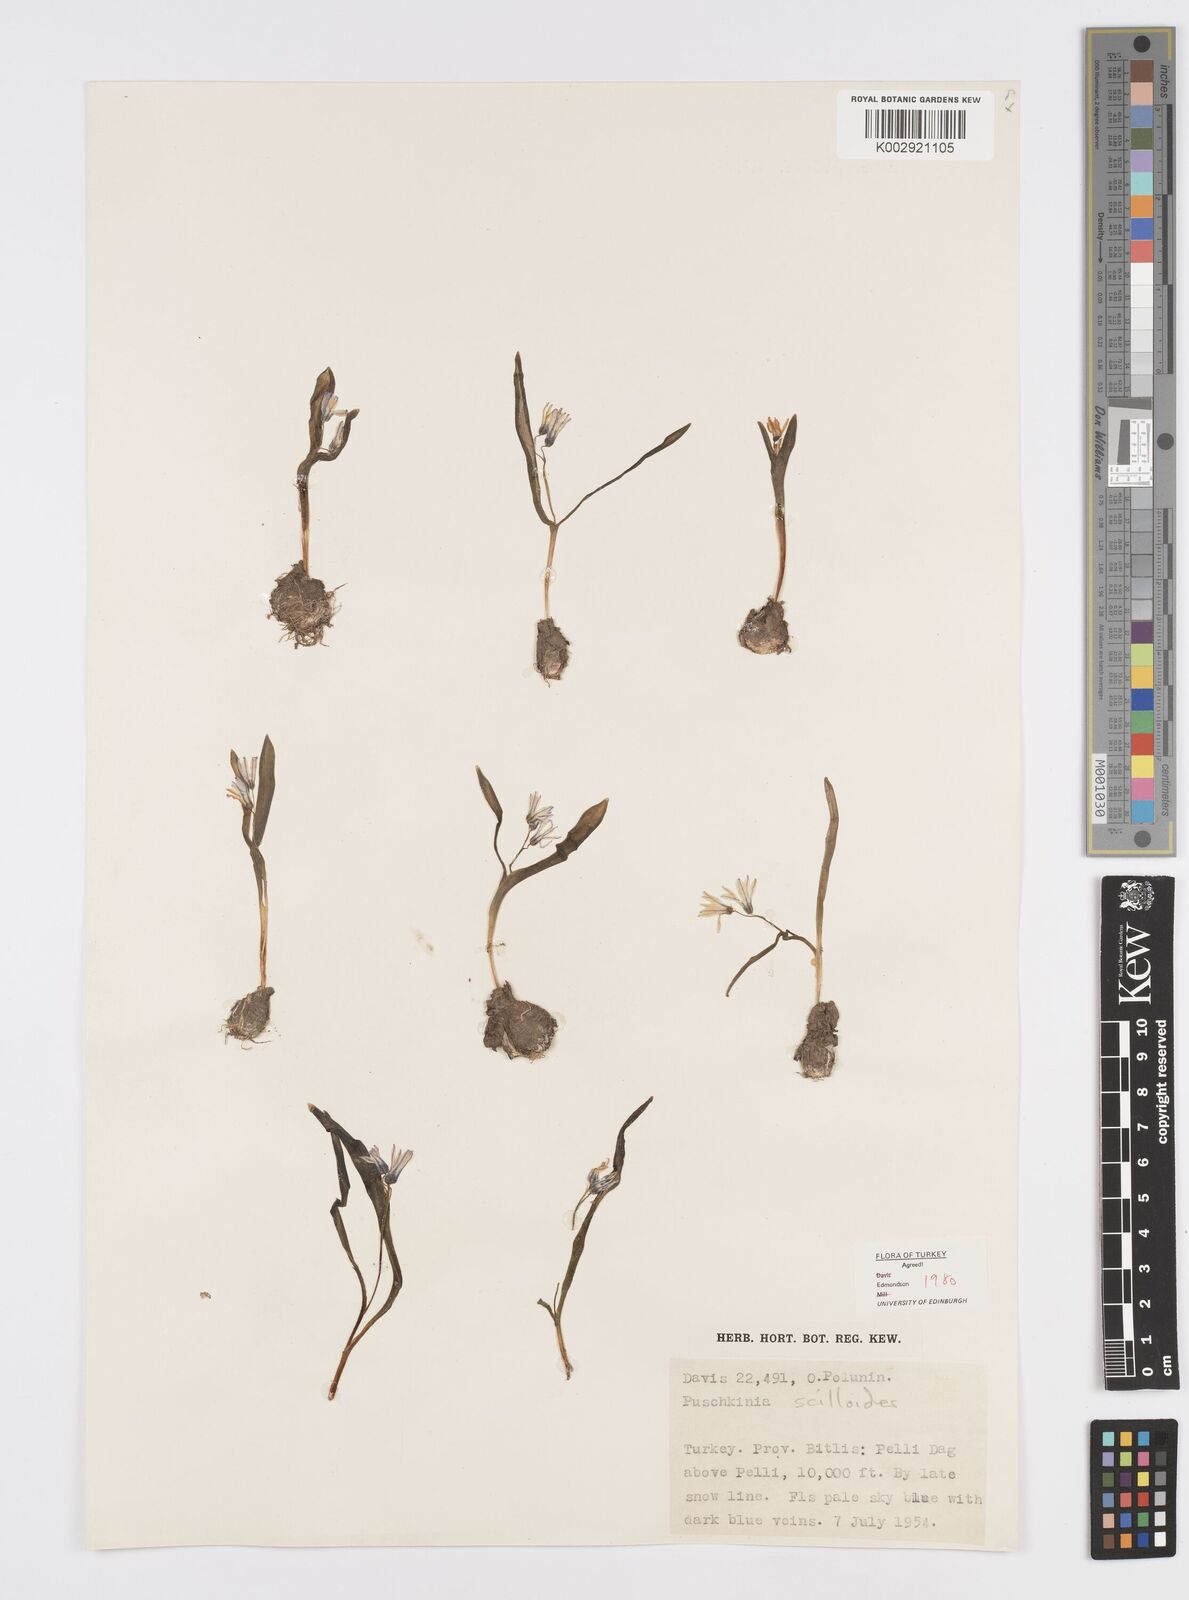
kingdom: Plantae
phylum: Tracheophyta
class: Liliopsida
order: Asparagales
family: Asparagaceae
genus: Puschkinia
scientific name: Puschkinia scilloides
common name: Striped squill
